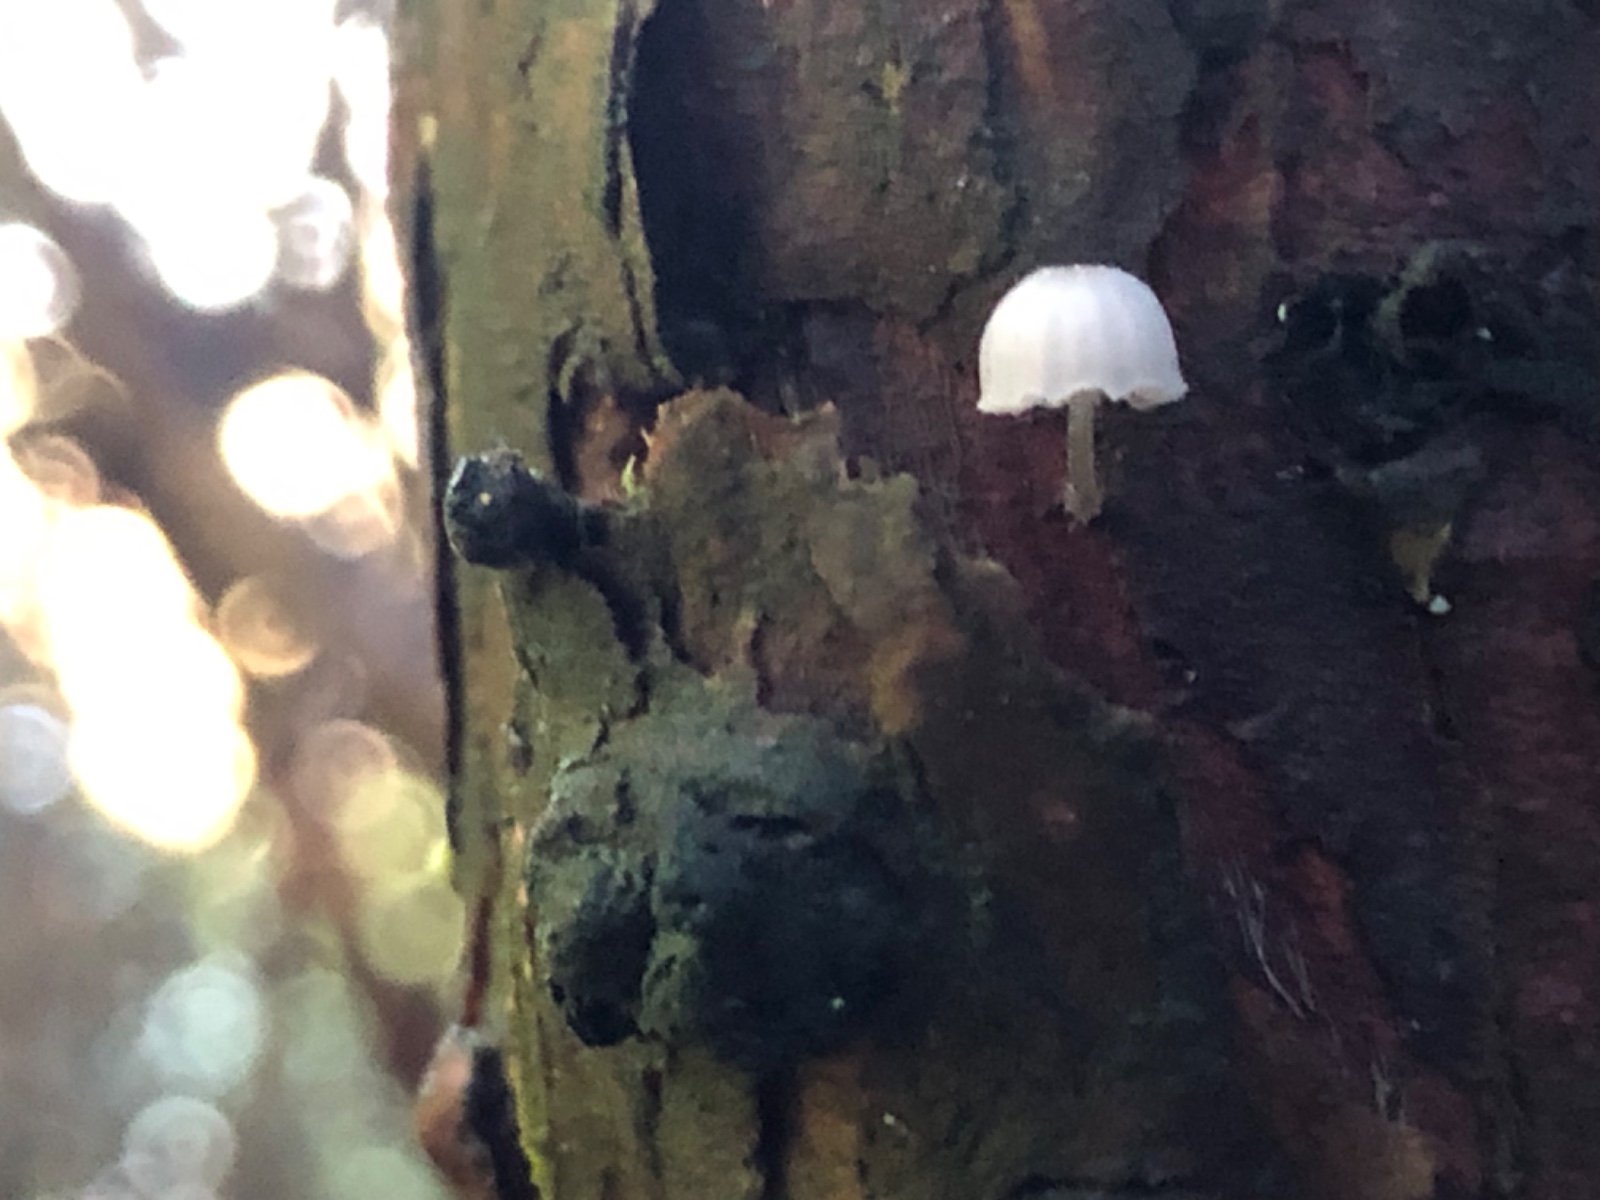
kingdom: Fungi
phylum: Basidiomycota
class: Agaricomycetes
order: Agaricales
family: Mycenaceae
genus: Mycena
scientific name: Mycena pseudocorticola
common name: gråblå bark-huesvamp
